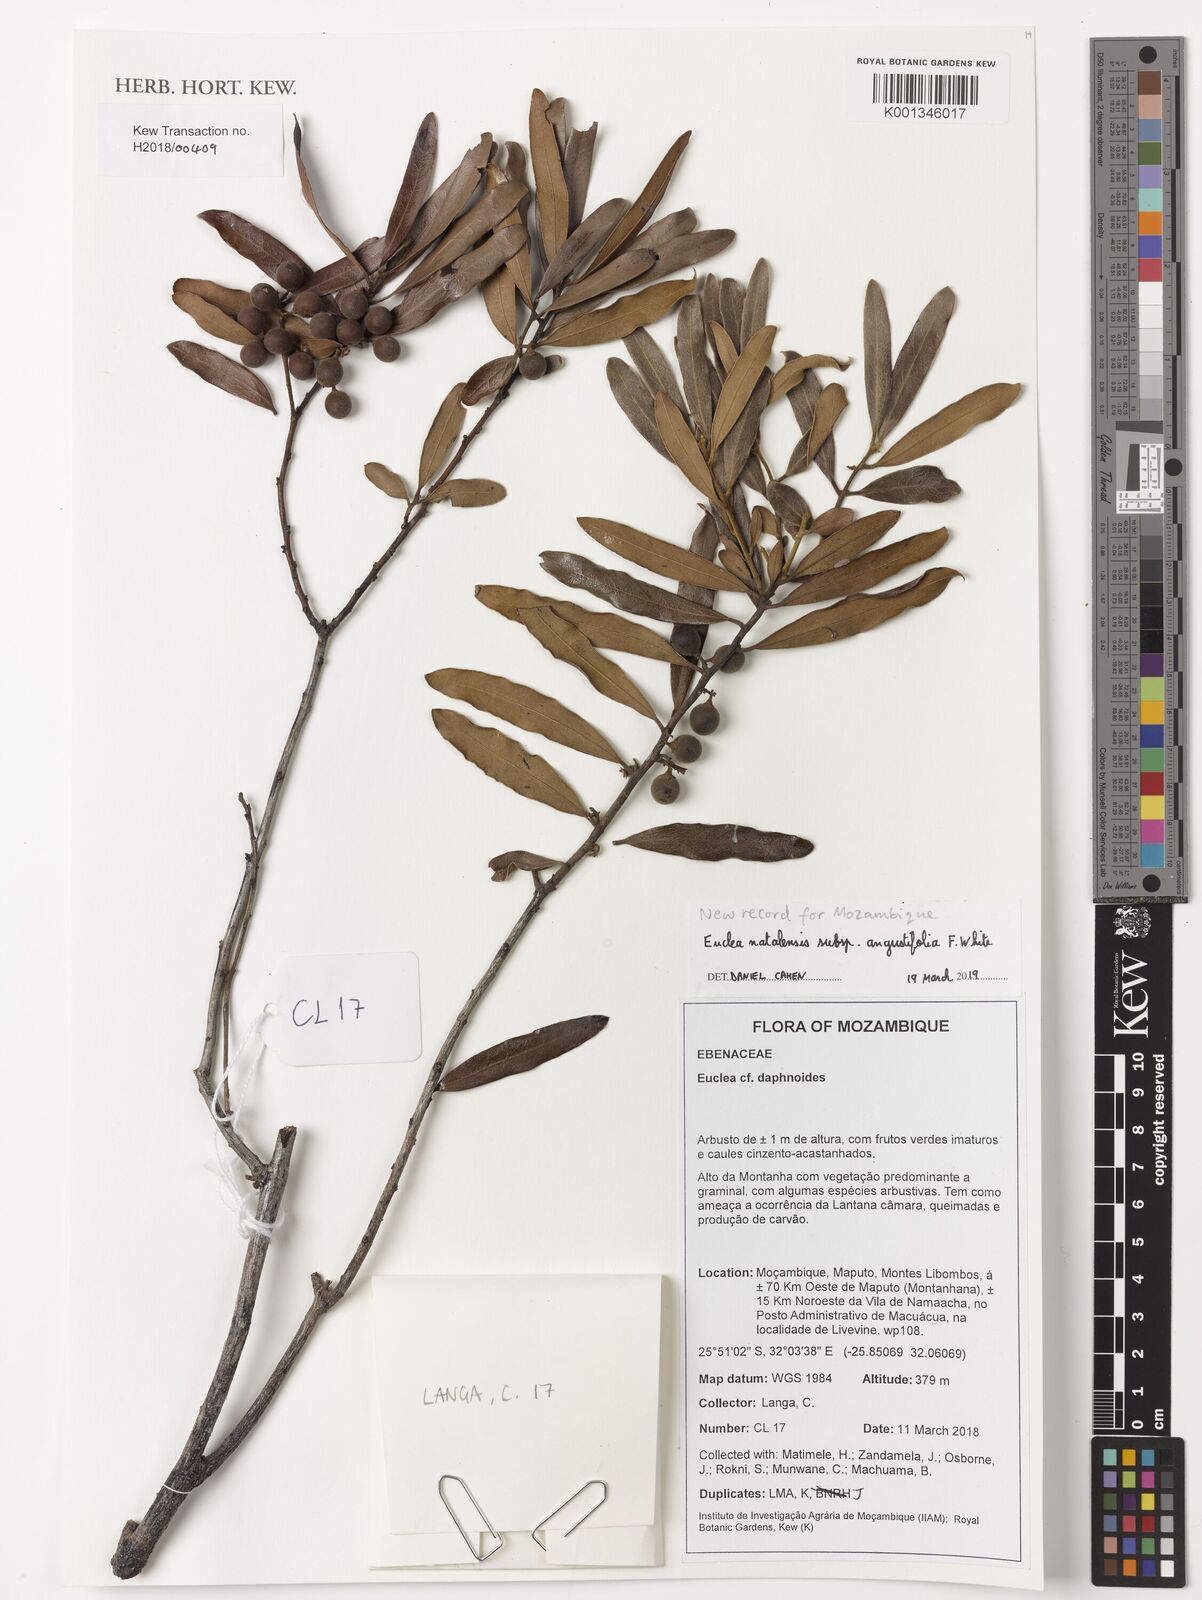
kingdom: Plantae
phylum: Tracheophyta
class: Magnoliopsida
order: Ericales
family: Ebenaceae
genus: Euclea
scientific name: Euclea natalensis
